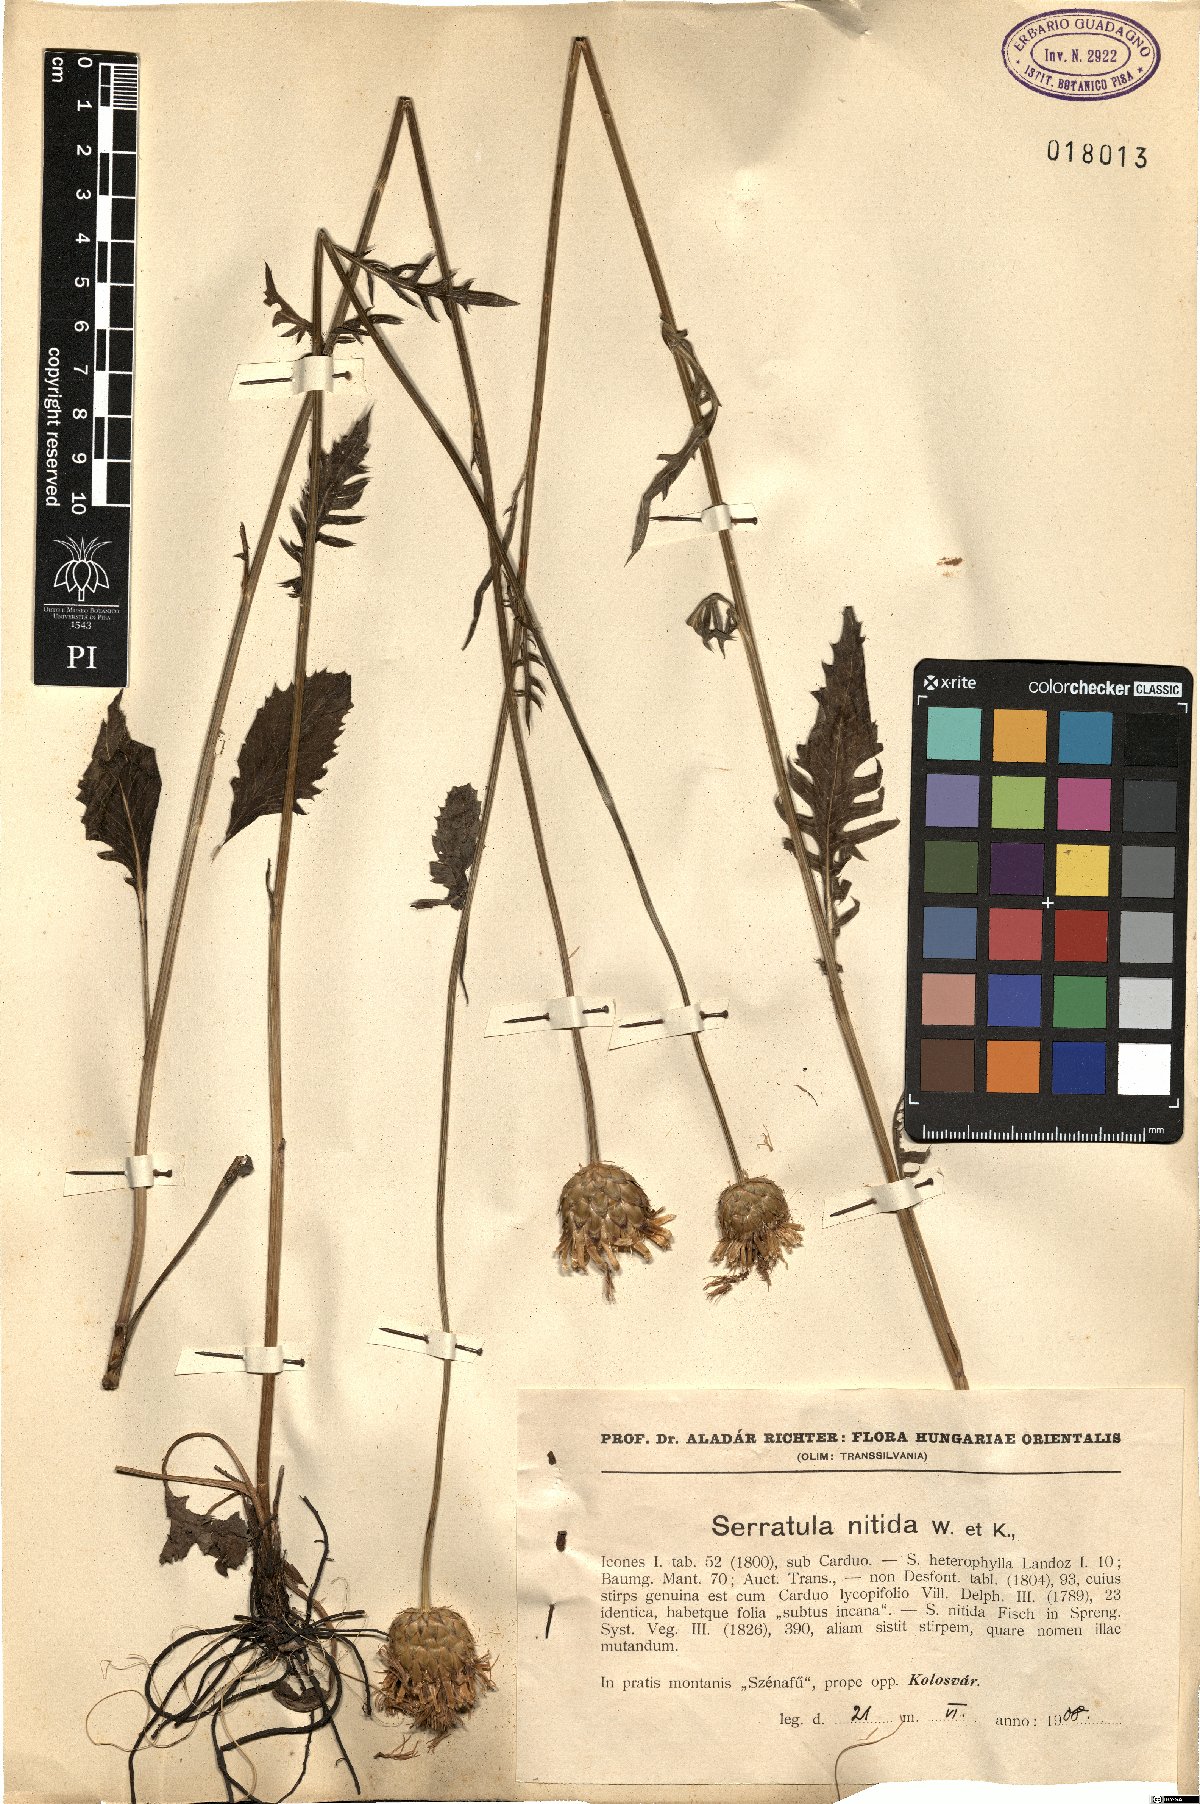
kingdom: Plantae
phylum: Tracheophyta
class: Magnoliopsida
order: Asterales
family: Asteraceae
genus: Klasea
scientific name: Klasea cardunculus
